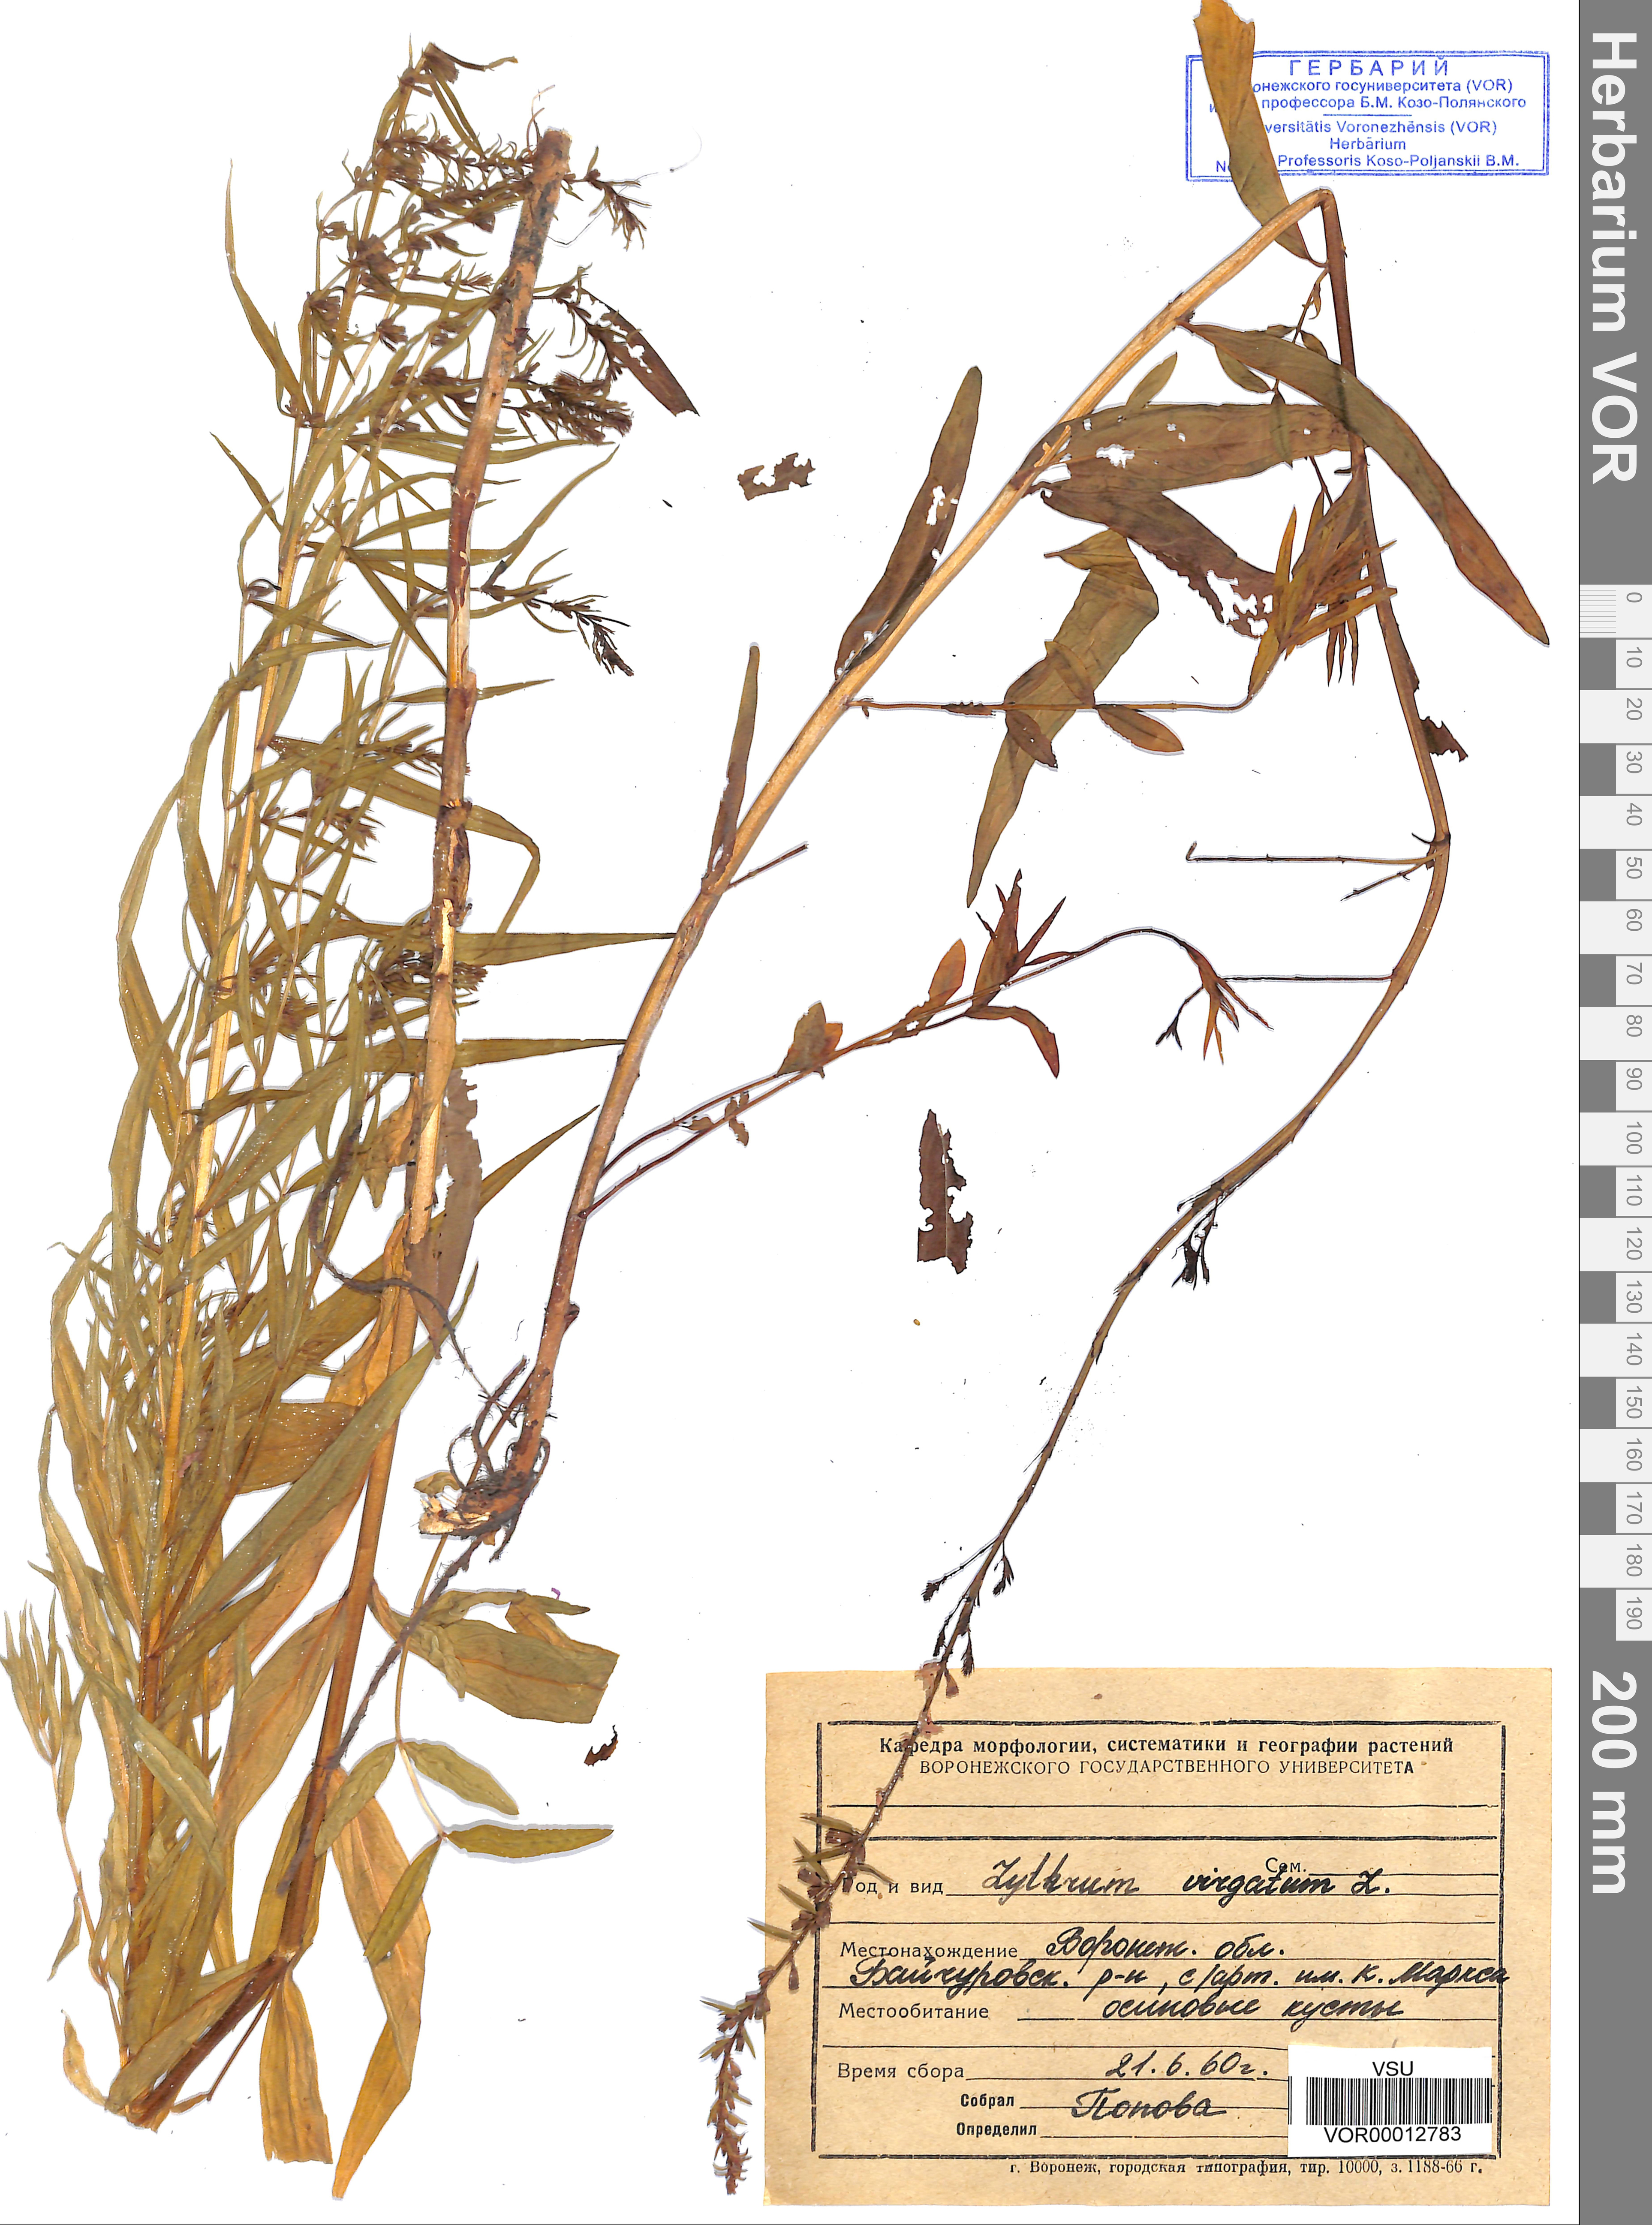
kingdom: Plantae
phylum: Tracheophyta
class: Magnoliopsida
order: Myrtales
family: Lythraceae
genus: Lythrum
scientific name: Lythrum virgatum
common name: European wand loosestrife
